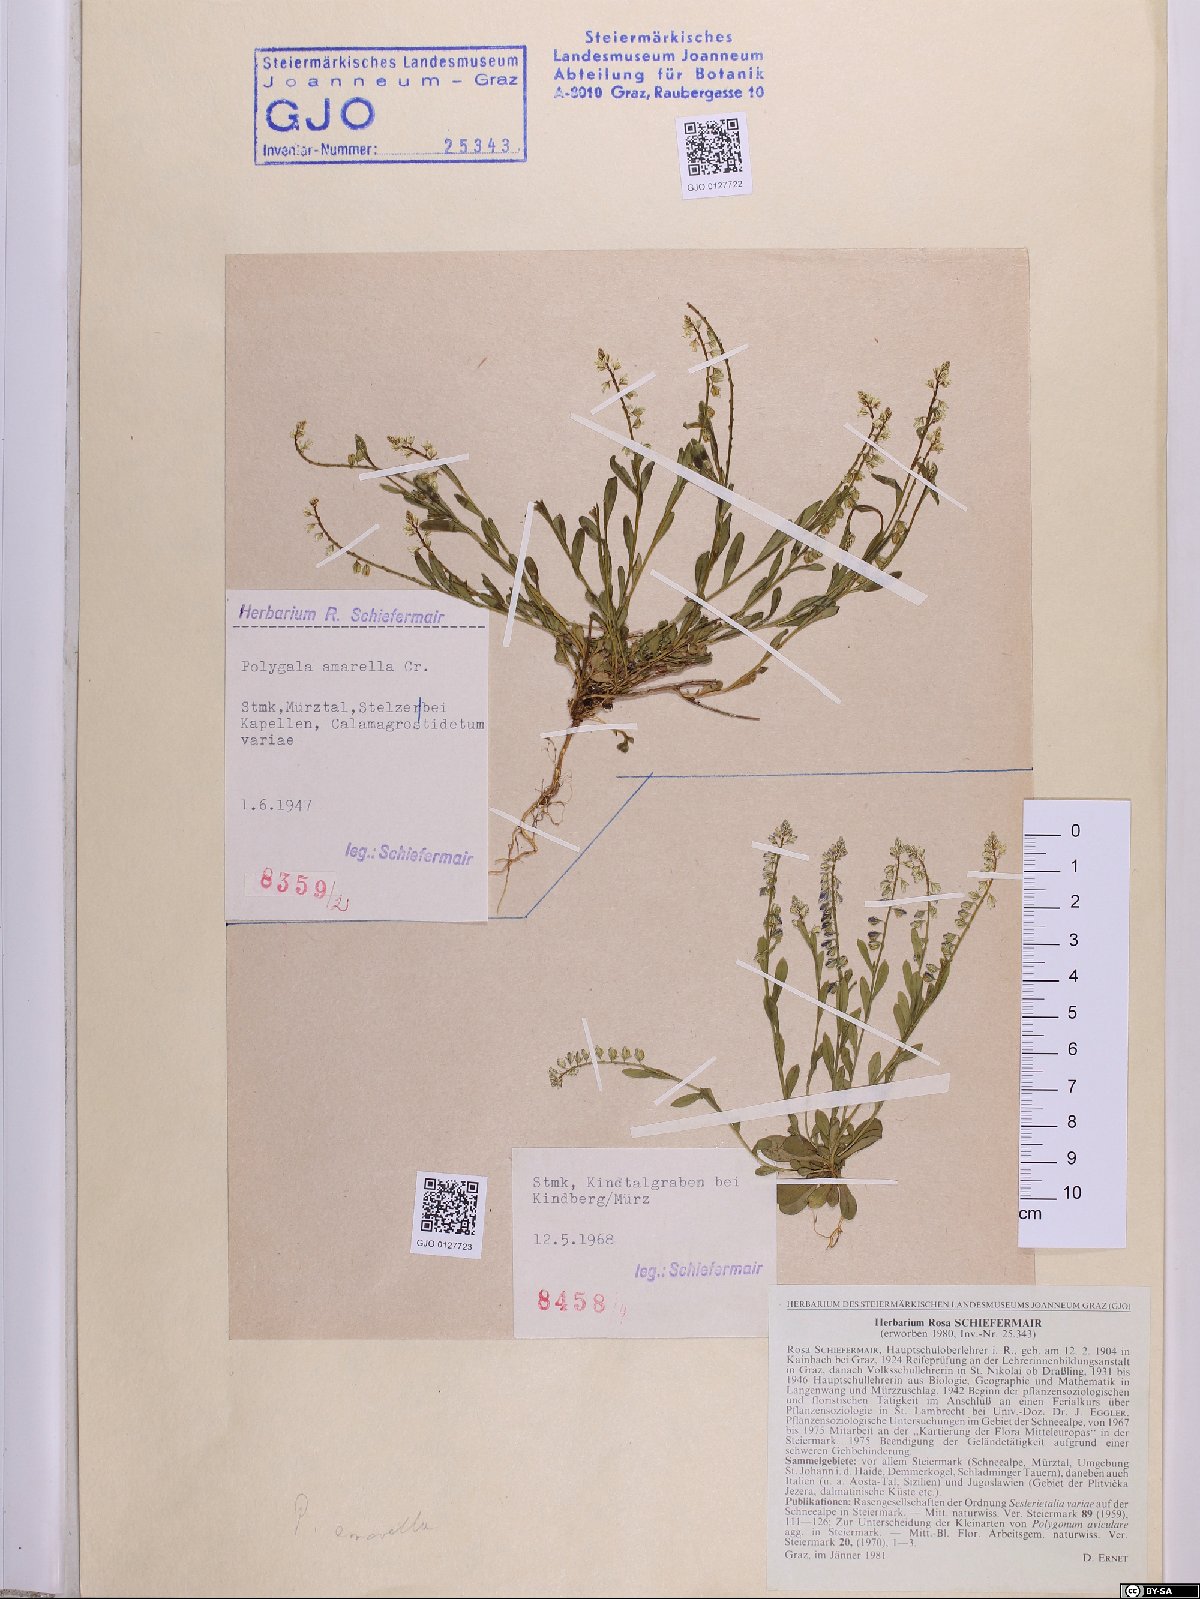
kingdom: Plantae
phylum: Tracheophyta
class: Magnoliopsida
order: Fabales
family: Polygalaceae
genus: Polygala
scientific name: Polygala amarella
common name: Dwarf milkwort
